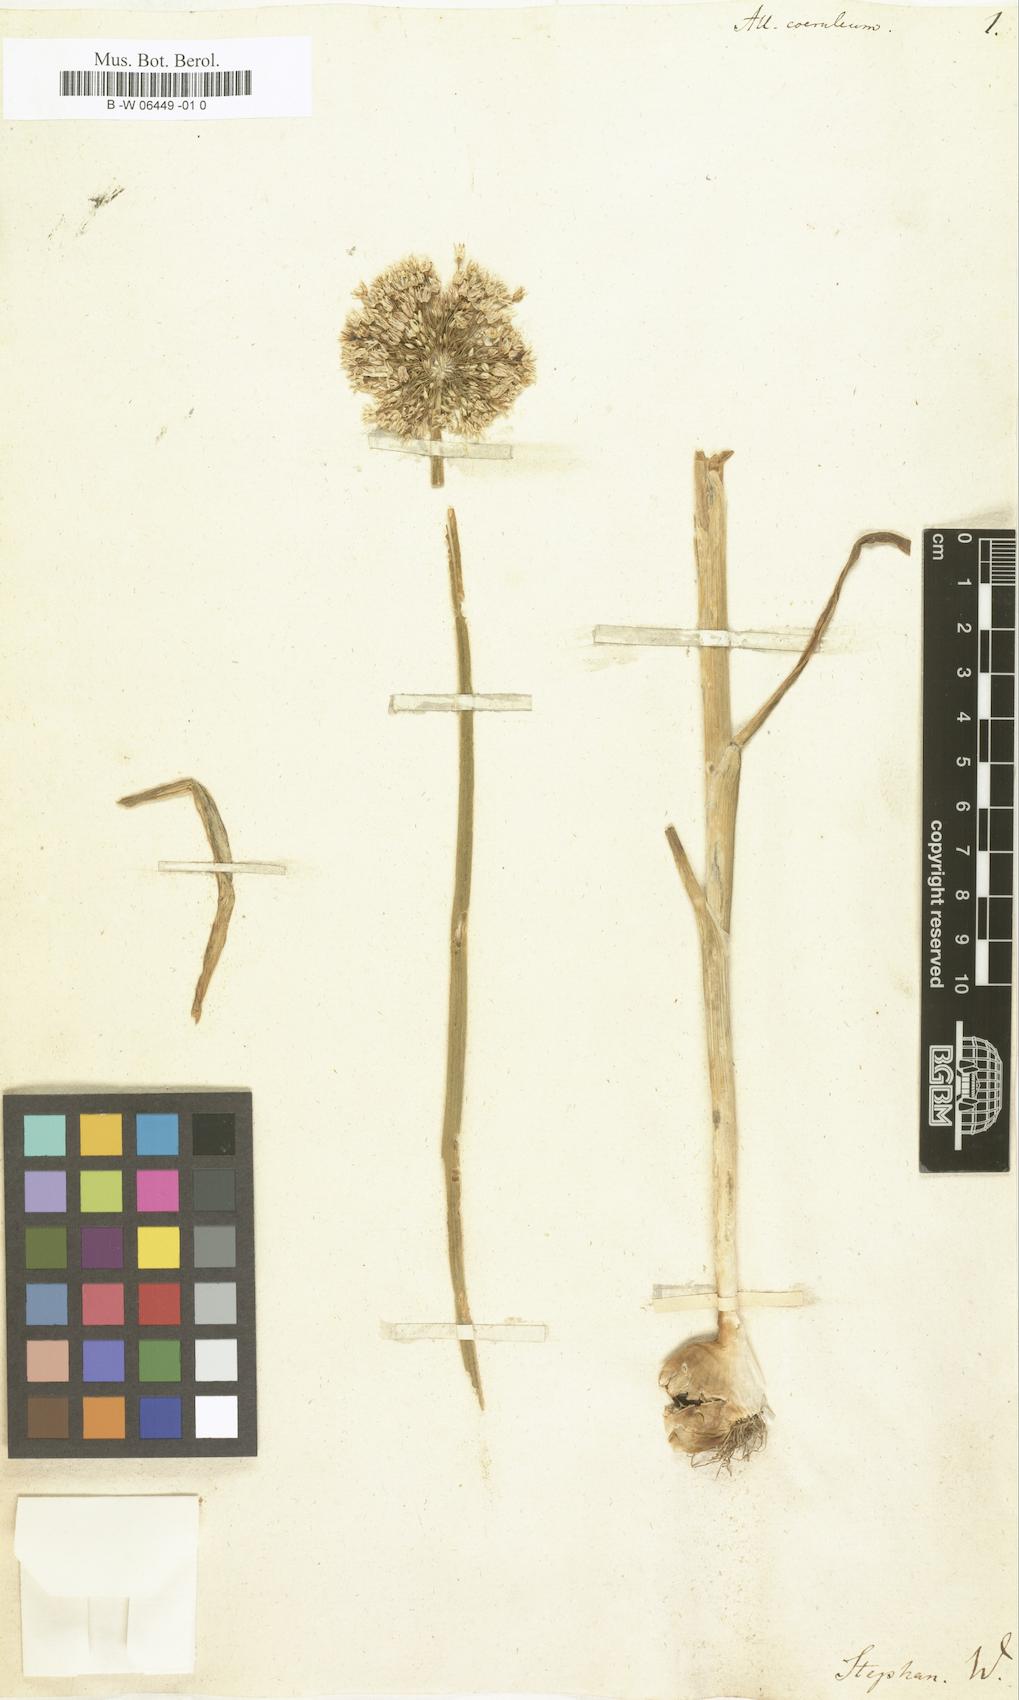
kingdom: Plantae
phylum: Tracheophyta
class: Liliopsida
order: Asparagales
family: Amaryllidaceae
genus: Allium
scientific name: Allium caeruleum
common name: Blue-of-the-heavens
